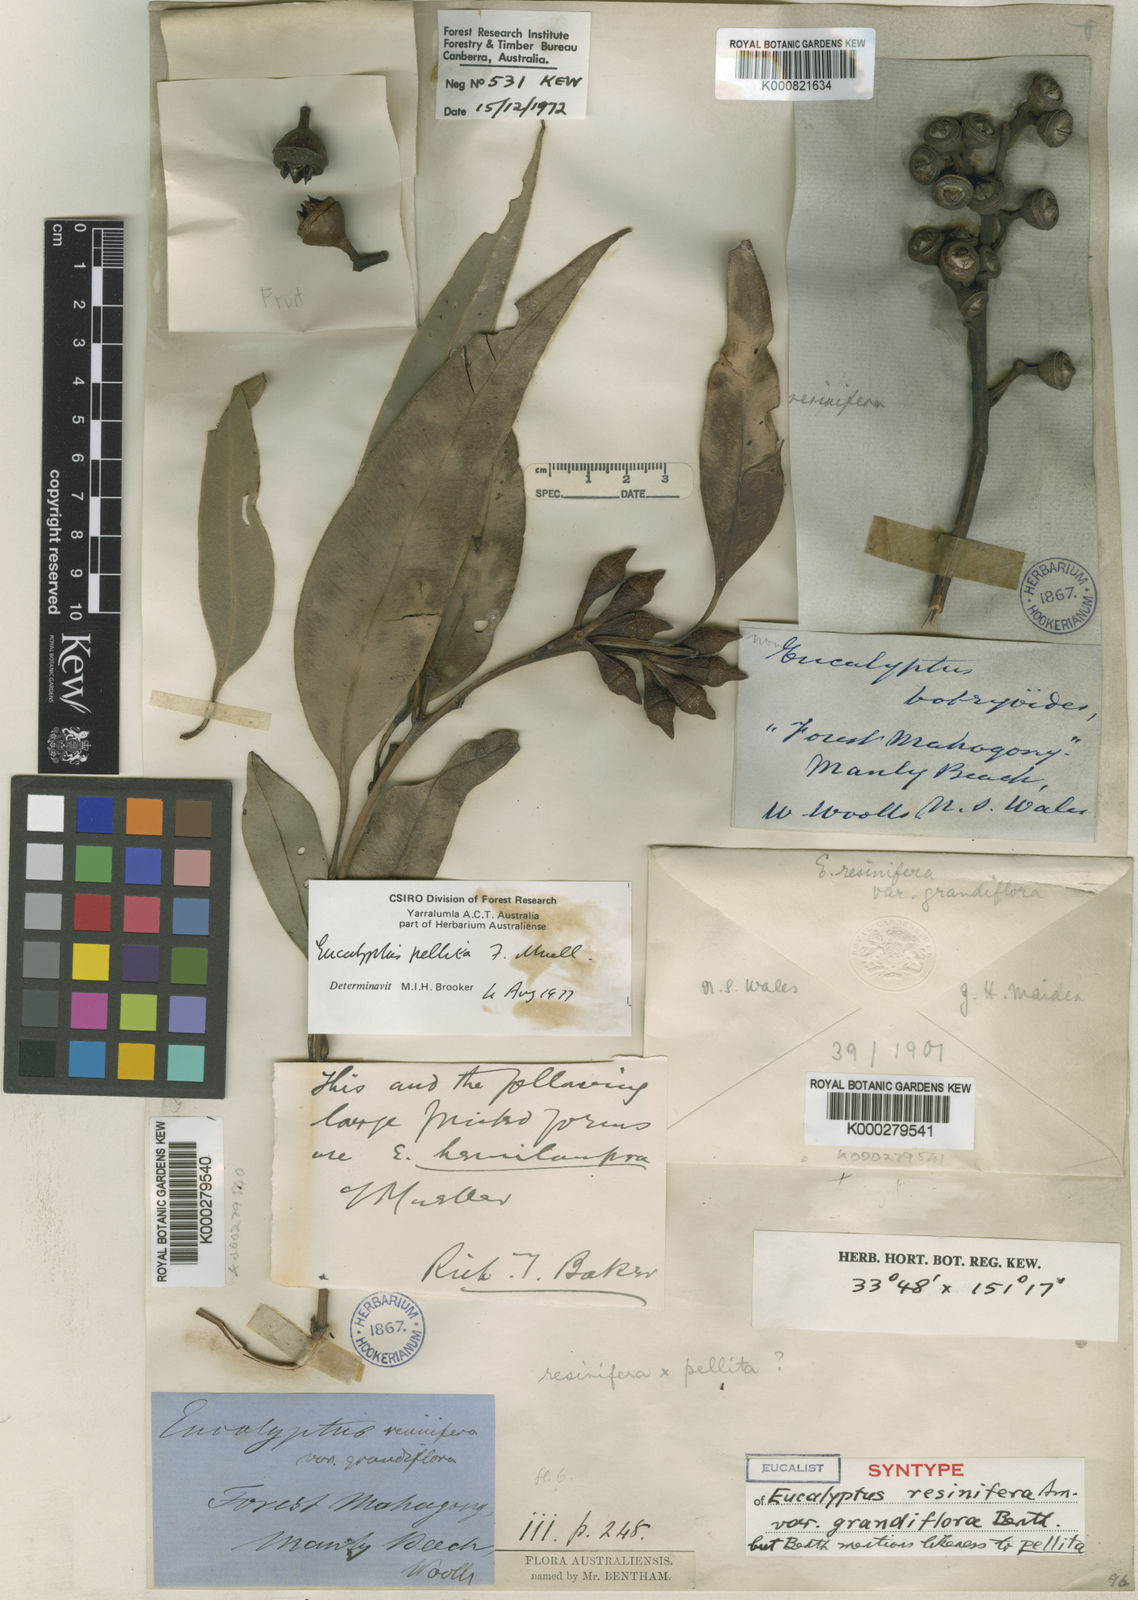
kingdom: Plantae
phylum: Tracheophyta
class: Magnoliopsida
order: Myrtales
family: Myrtaceae
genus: Eucalyptus
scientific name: Eucalyptus
